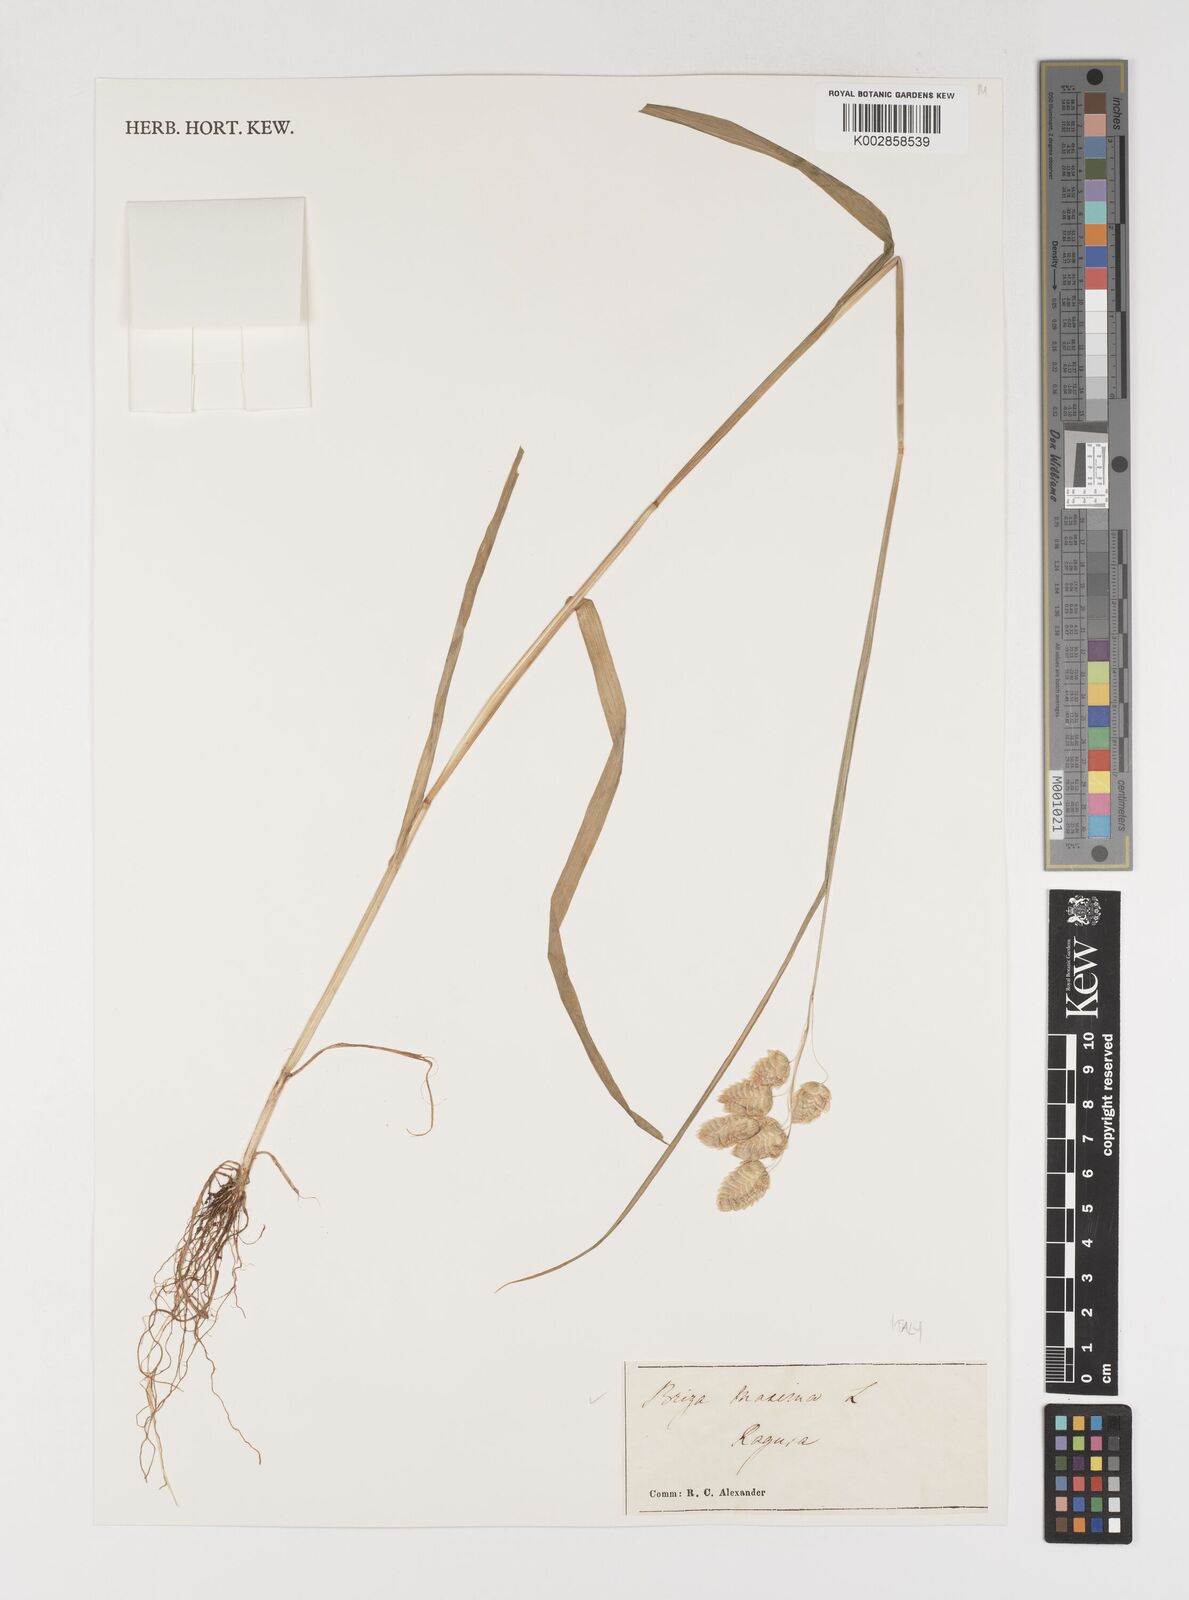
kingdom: Plantae
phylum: Tracheophyta
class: Liliopsida
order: Poales
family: Poaceae
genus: Briza
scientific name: Briza maxima
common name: Big quakinggrass
